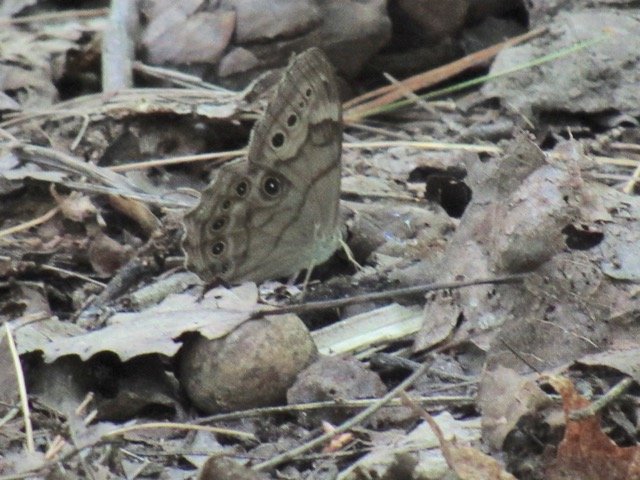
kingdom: Animalia
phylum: Arthropoda
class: Insecta
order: Lepidoptera
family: Nymphalidae
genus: Lethe
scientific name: Lethe anthedon
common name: Northern Pearly-Eye
